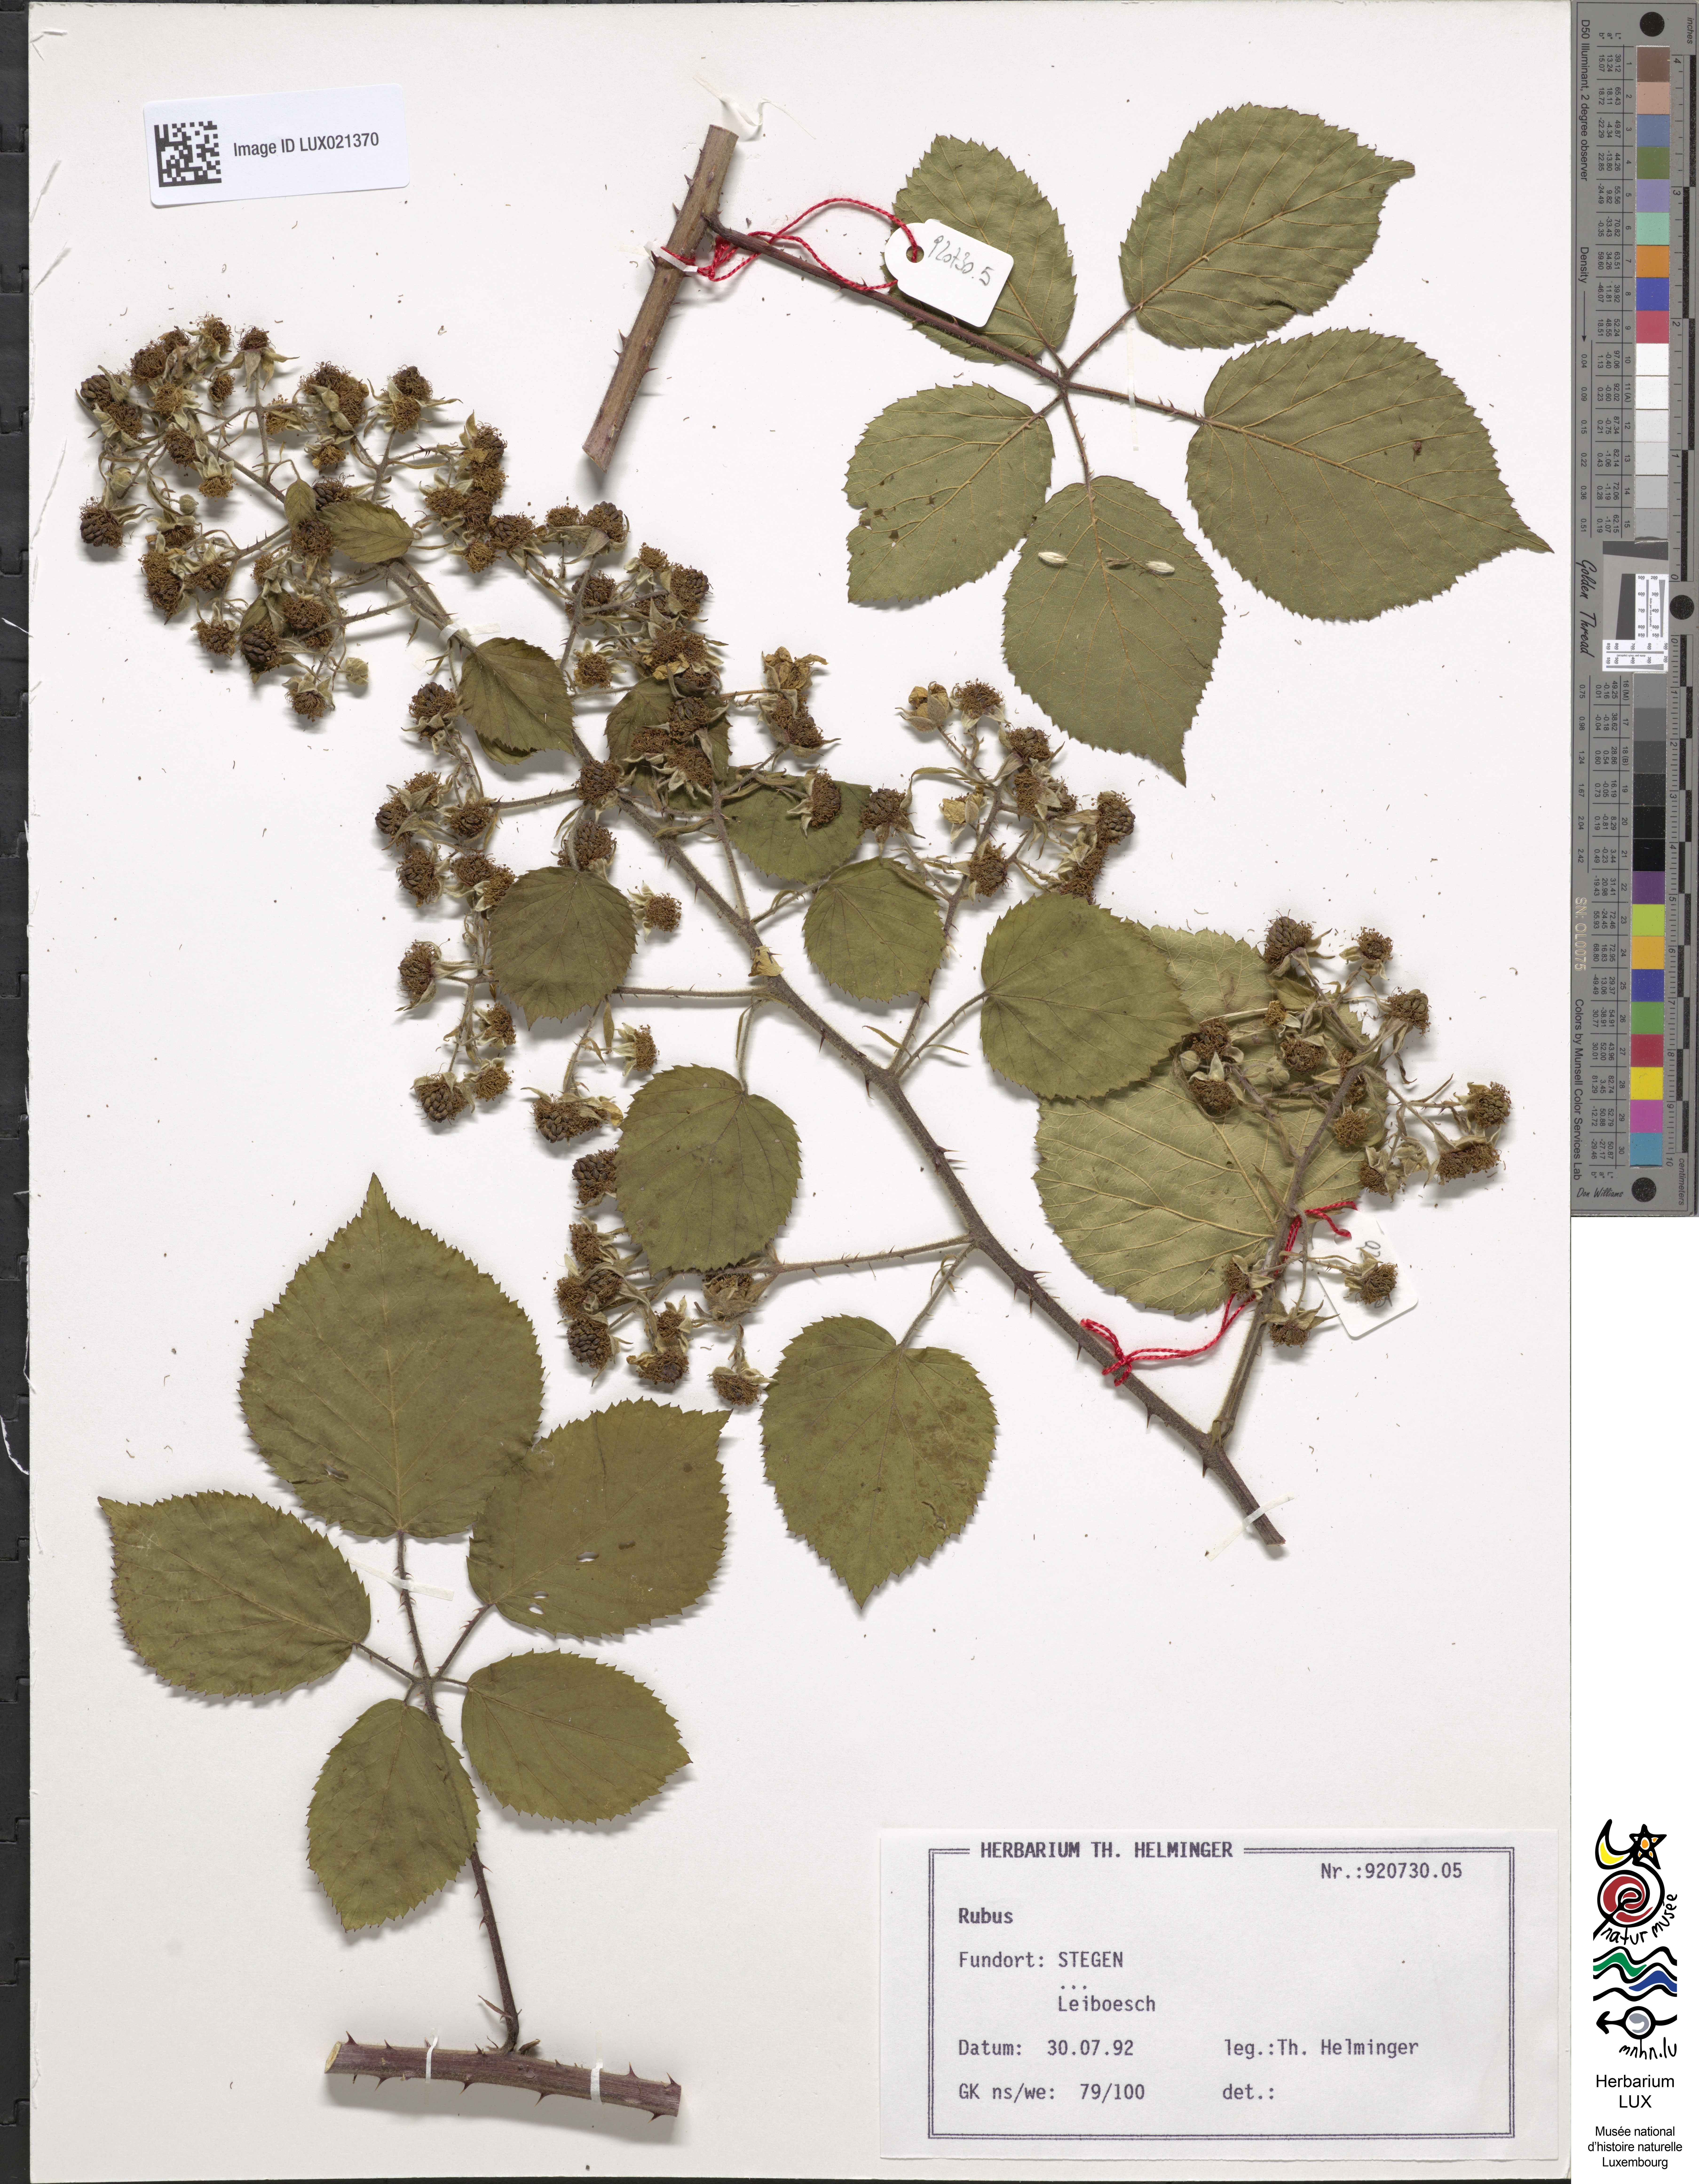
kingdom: Plantae
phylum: Tracheophyta
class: Magnoliopsida
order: Rosales
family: Rosaceae
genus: Rubus
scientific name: Rubus
